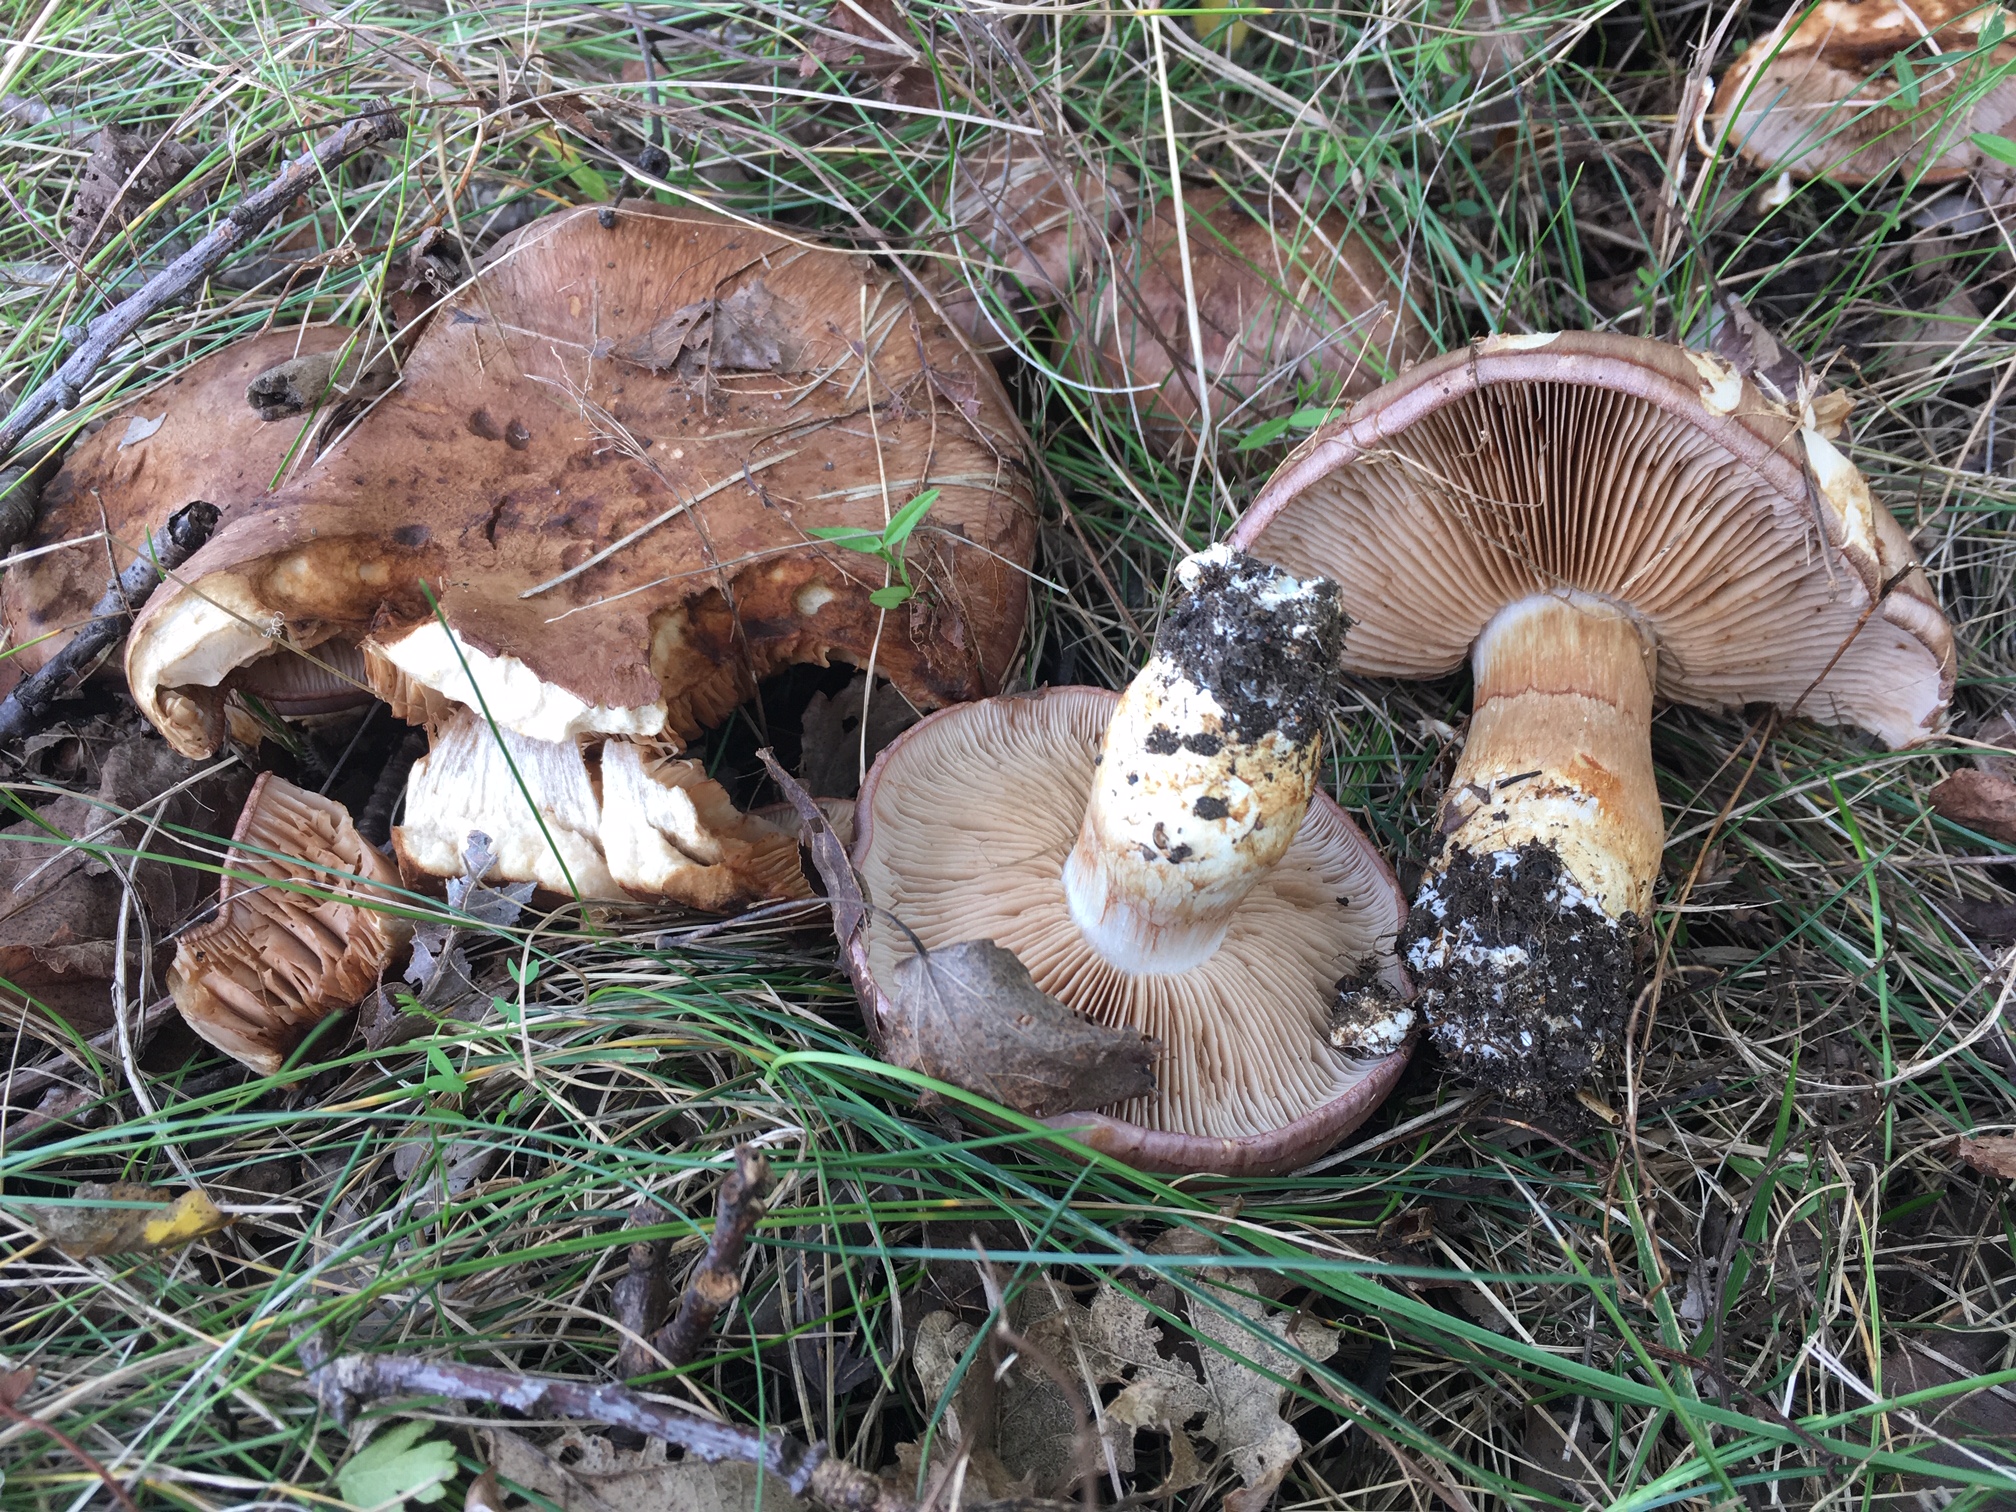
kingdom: Fungi
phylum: Basidiomycota
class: Agaricomycetes
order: Agaricales
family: Cortinariaceae
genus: Phlegmacium
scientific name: Phlegmacium balteatocumatile
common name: violettrådet slørhat
